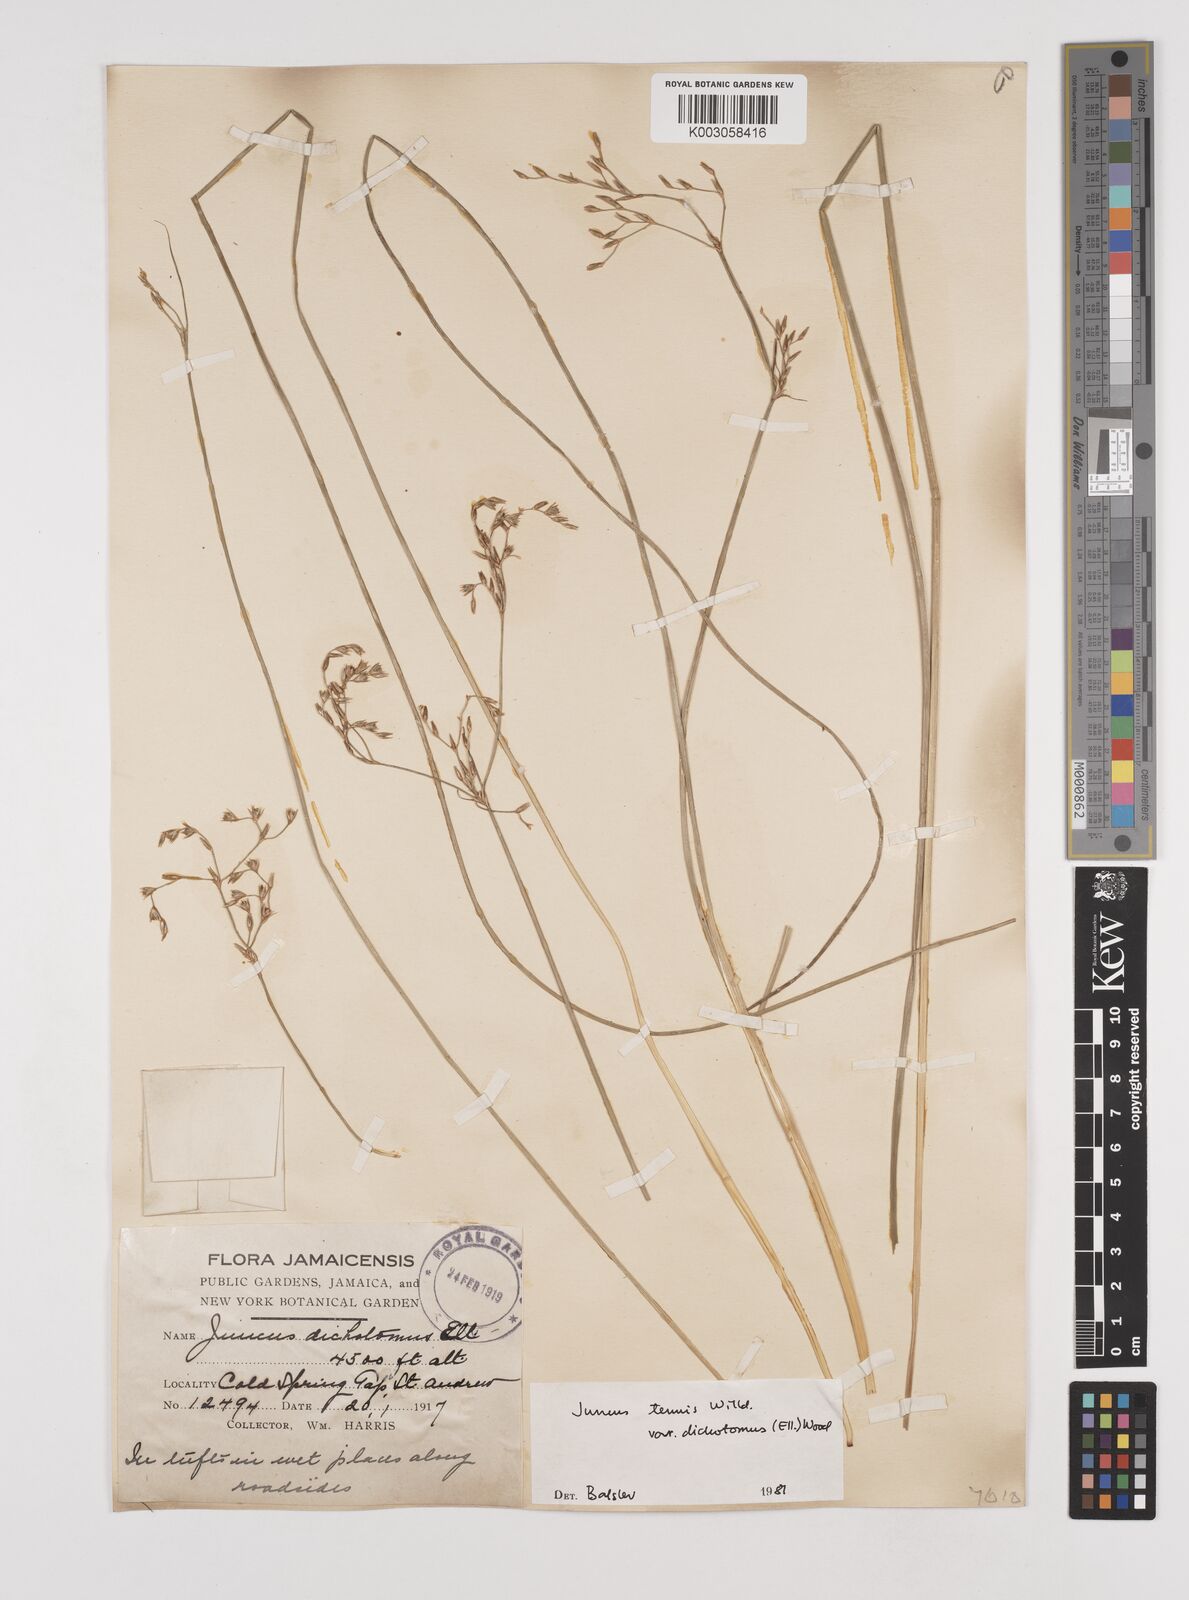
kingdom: Plantae
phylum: Tracheophyta
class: Liliopsida
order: Poales
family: Juncaceae
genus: Juncus
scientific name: Juncus dichotomus
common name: Forked rush
